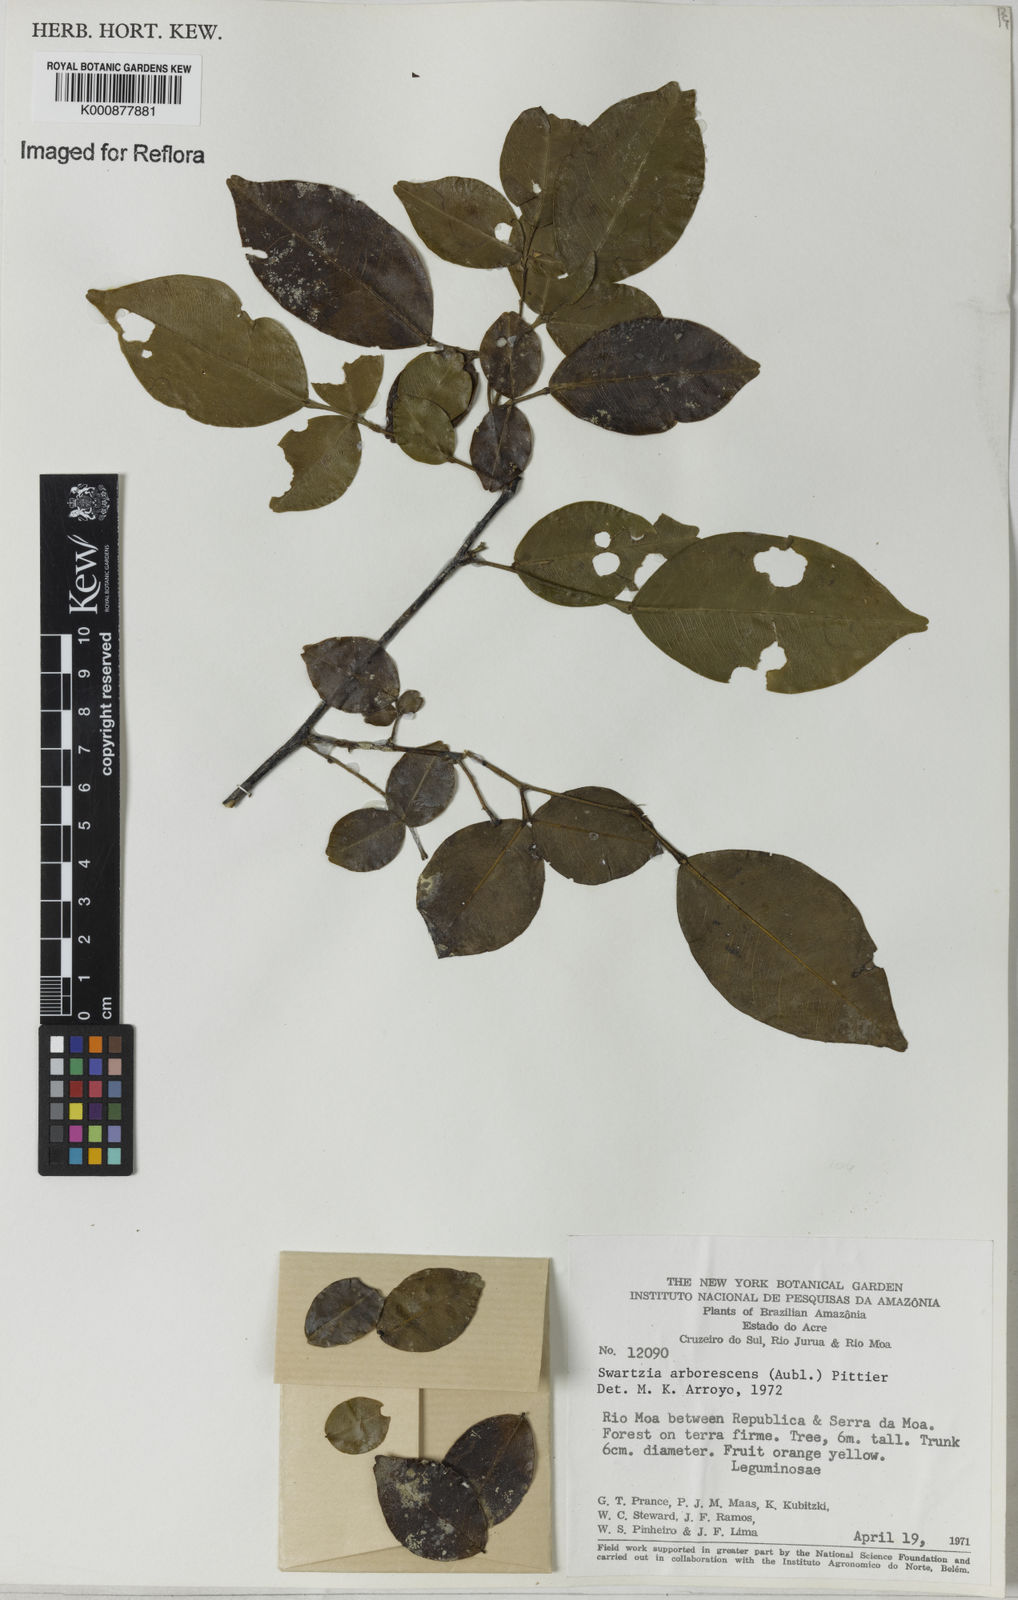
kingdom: Plantae
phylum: Tracheophyta
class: Magnoliopsida
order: Fabales
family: Fabaceae
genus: Swartzia
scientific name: Swartzia arborescens
